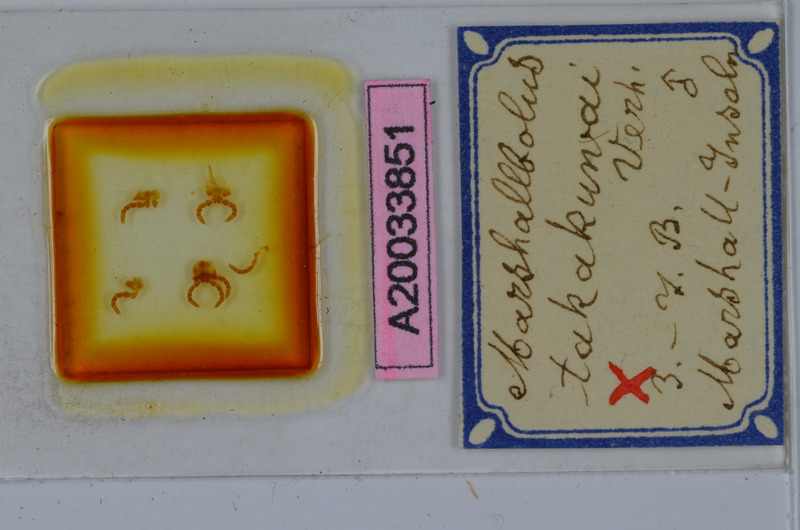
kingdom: Animalia
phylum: Arthropoda
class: Diplopoda
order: Spirobolida
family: Pachybolidae
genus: Trigoniulus
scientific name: Trigoniulus corallinus
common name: Millipede
